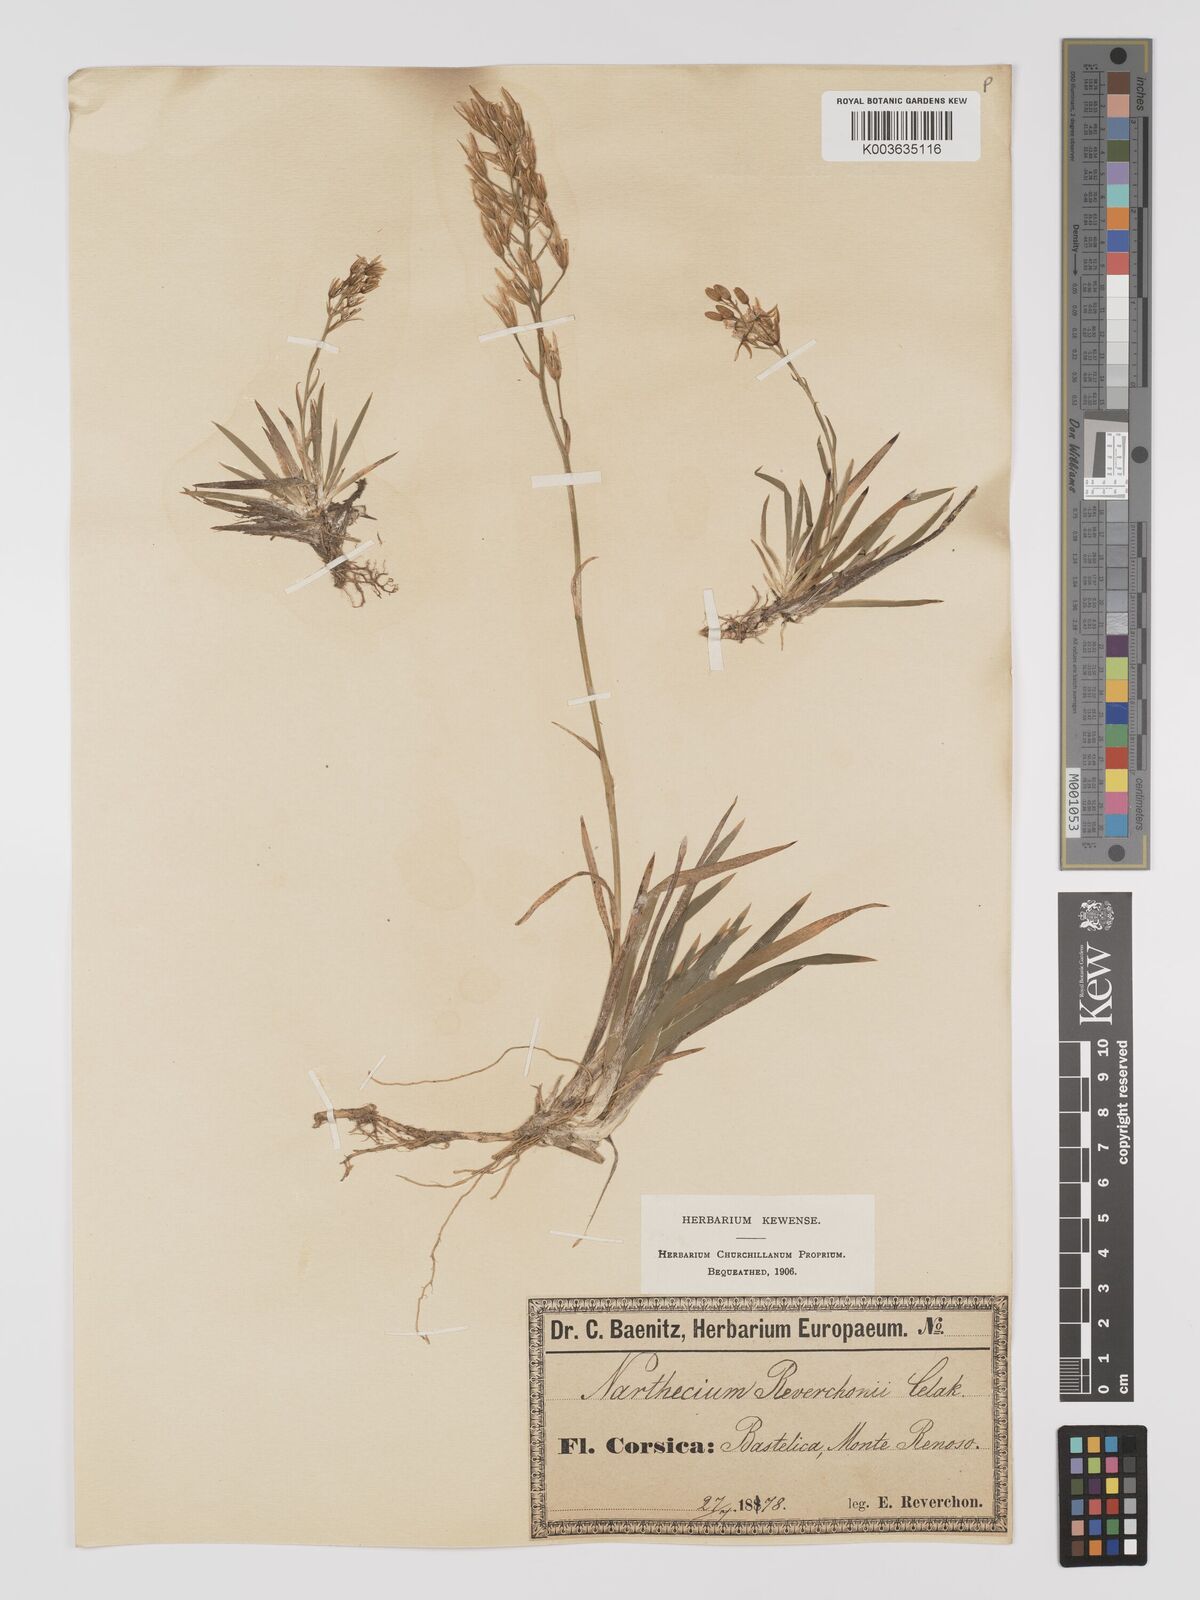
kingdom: Plantae
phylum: Tracheophyta
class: Liliopsida
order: Dioscoreales
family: Nartheciaceae
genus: Narthecium
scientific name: Narthecium reverchonii
